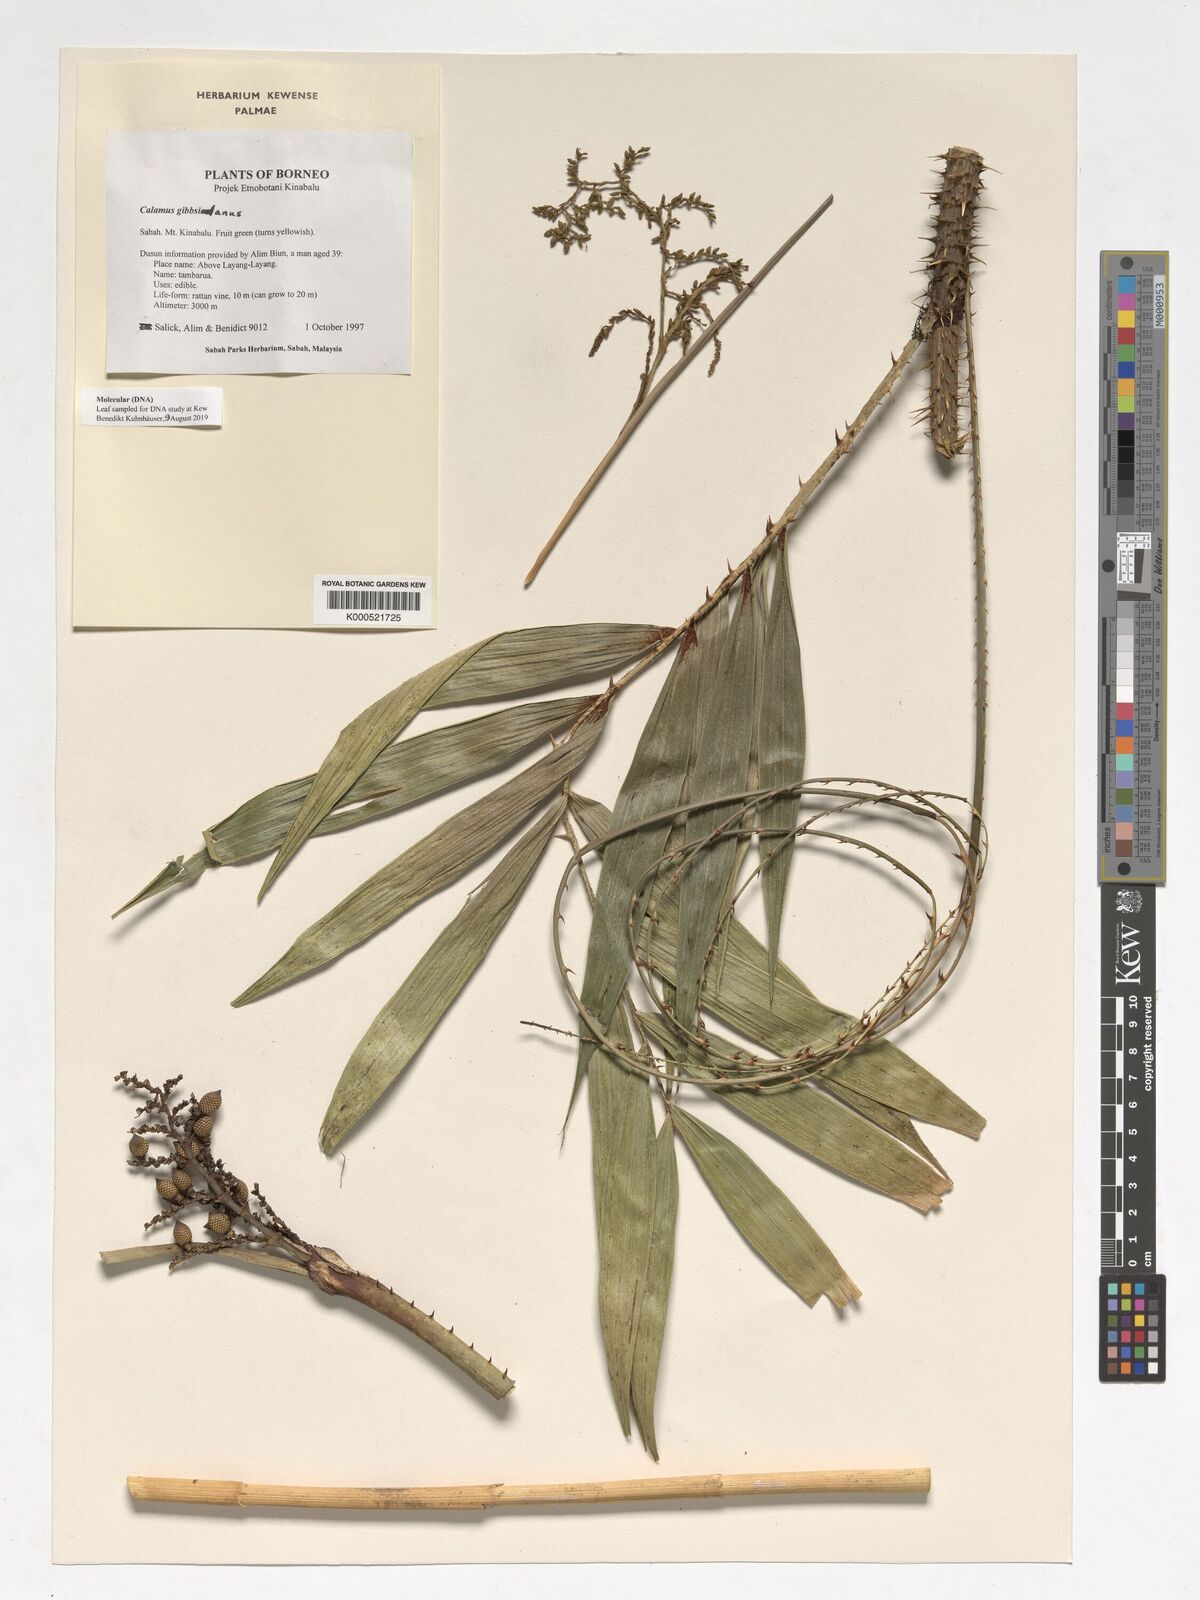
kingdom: Plantae
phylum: Tracheophyta
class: Liliopsida
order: Arecales
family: Arecaceae
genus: Calamus
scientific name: Calamus gibbsianus
